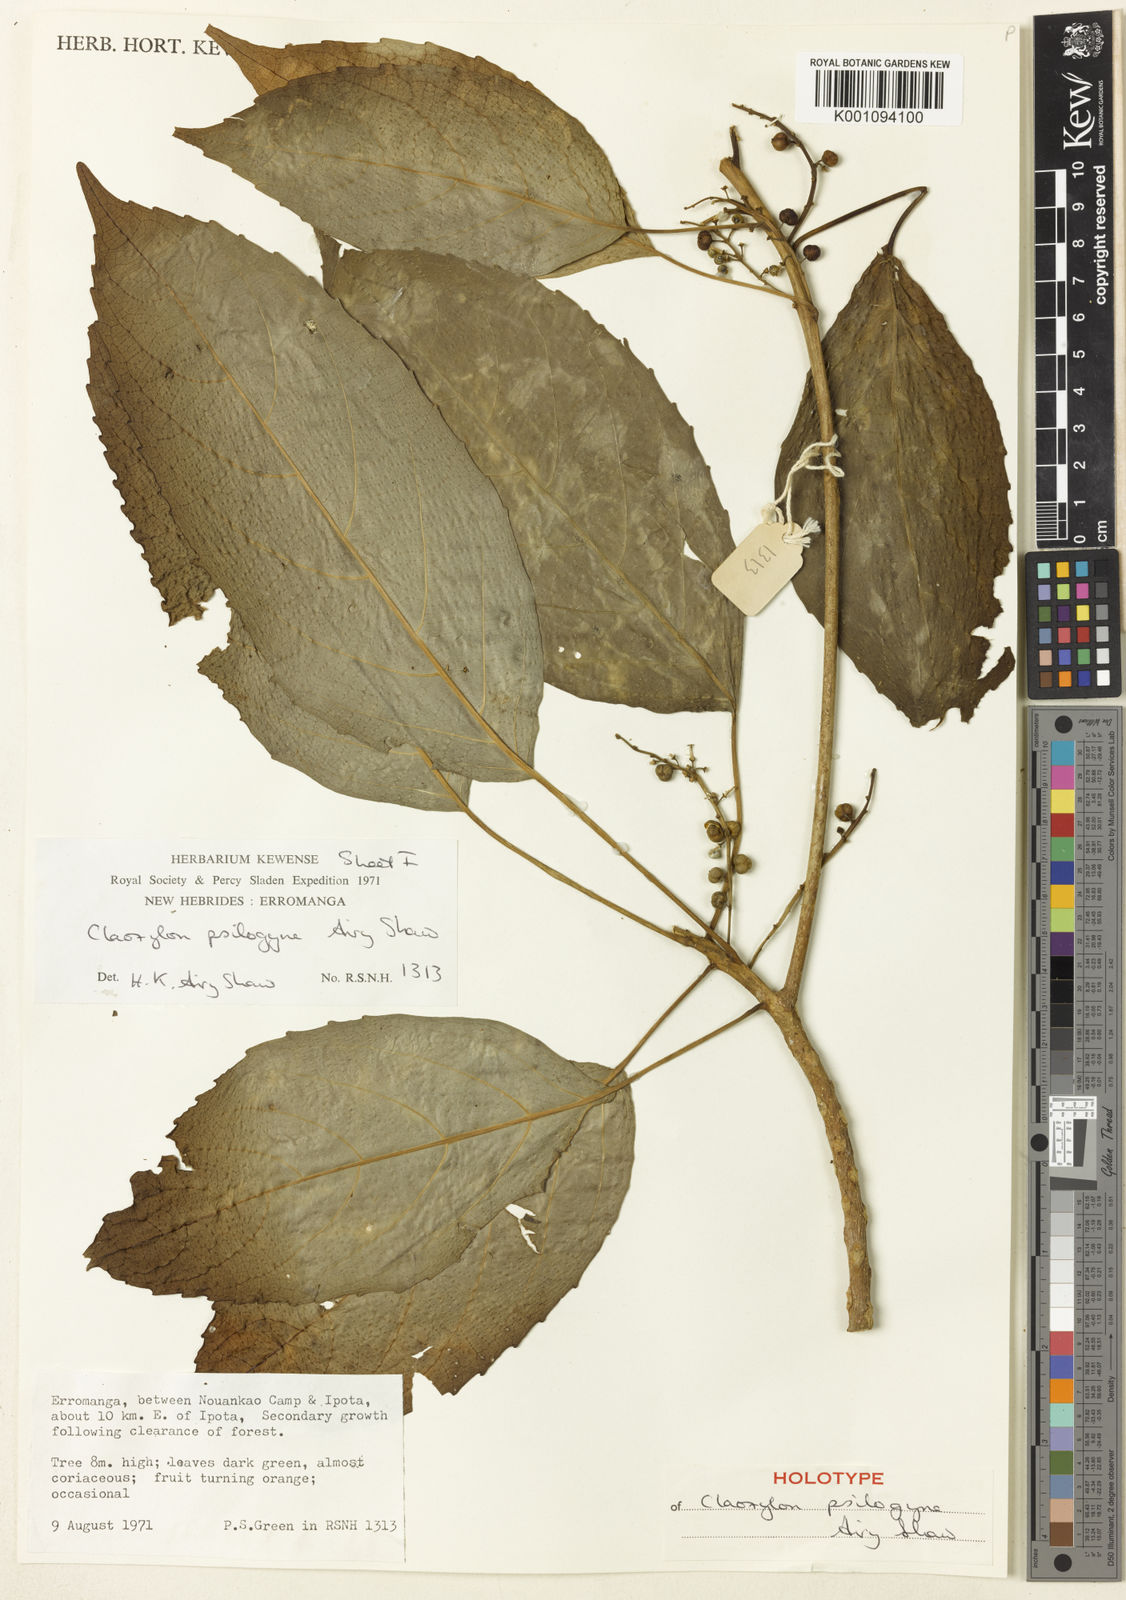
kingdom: Plantae
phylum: Tracheophyta
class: Magnoliopsida
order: Malpighiales
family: Euphorbiaceae
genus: Claoxylon
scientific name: Claoxylon psilogyne
